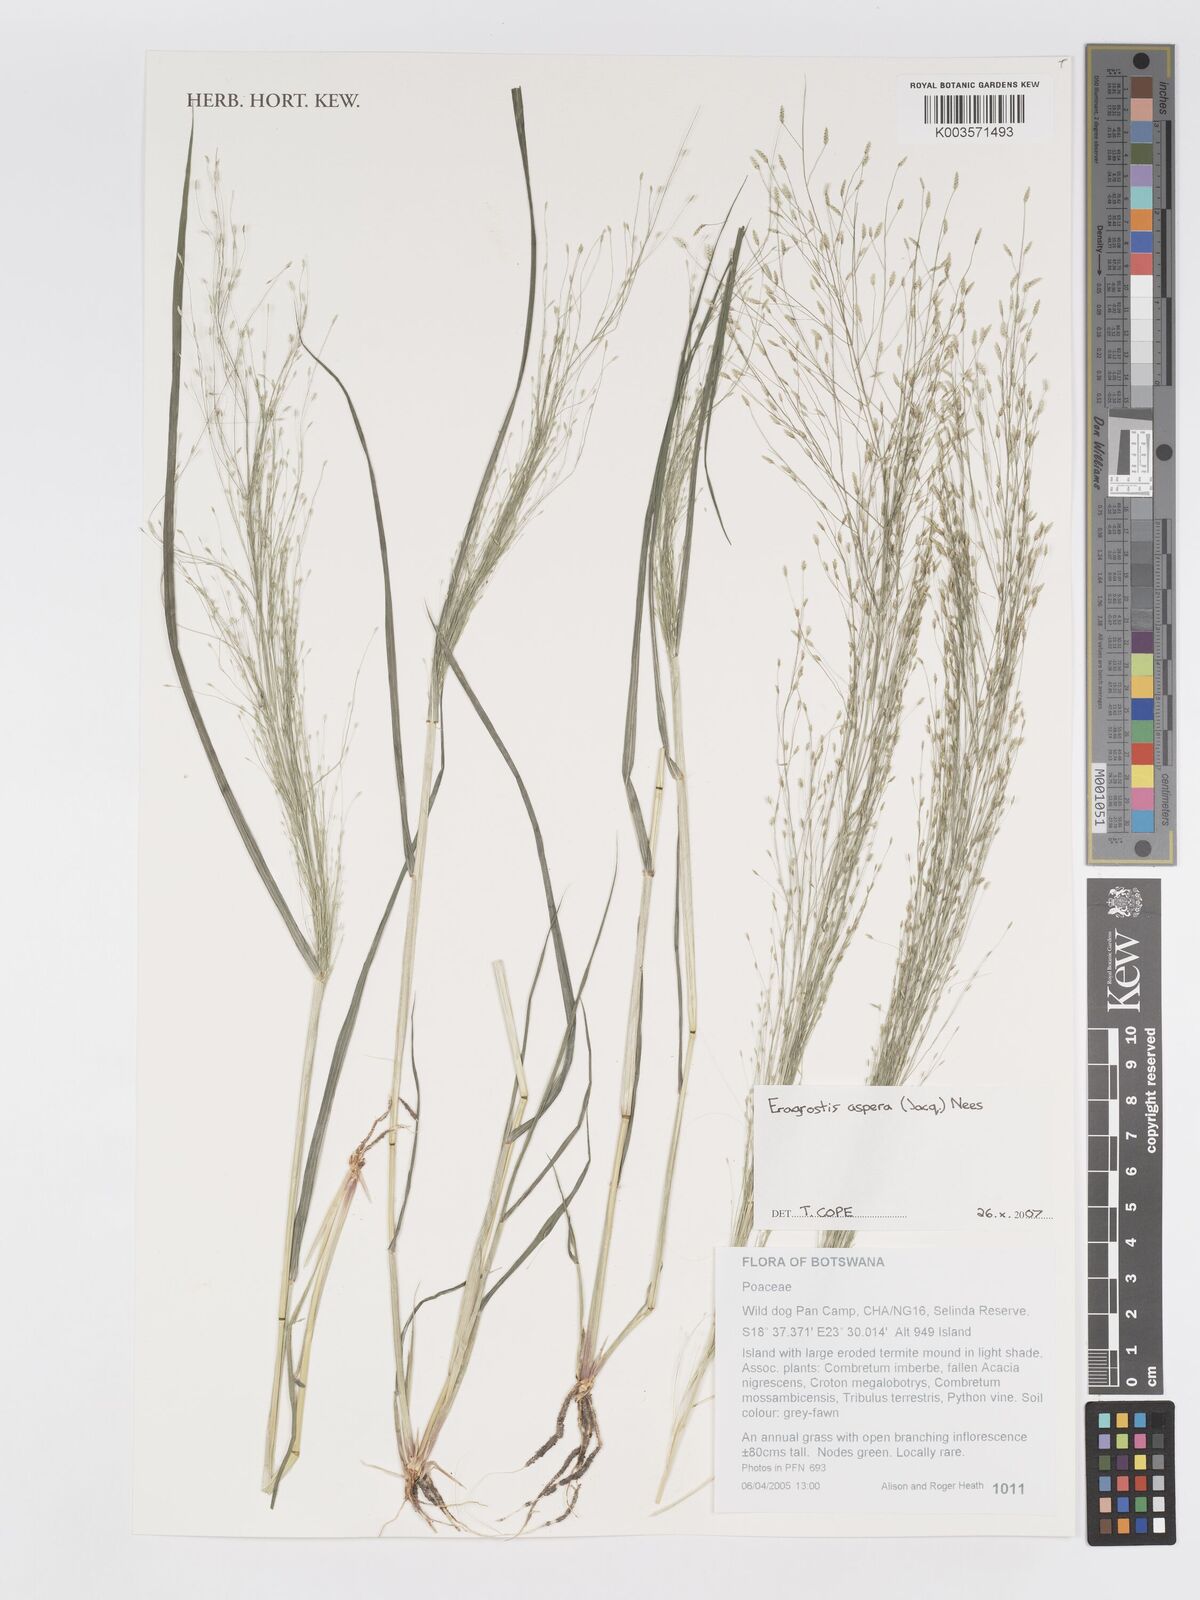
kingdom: Plantae
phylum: Tracheophyta
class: Liliopsida
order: Poales
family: Poaceae
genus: Eragrostis
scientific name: Eragrostis aspera
